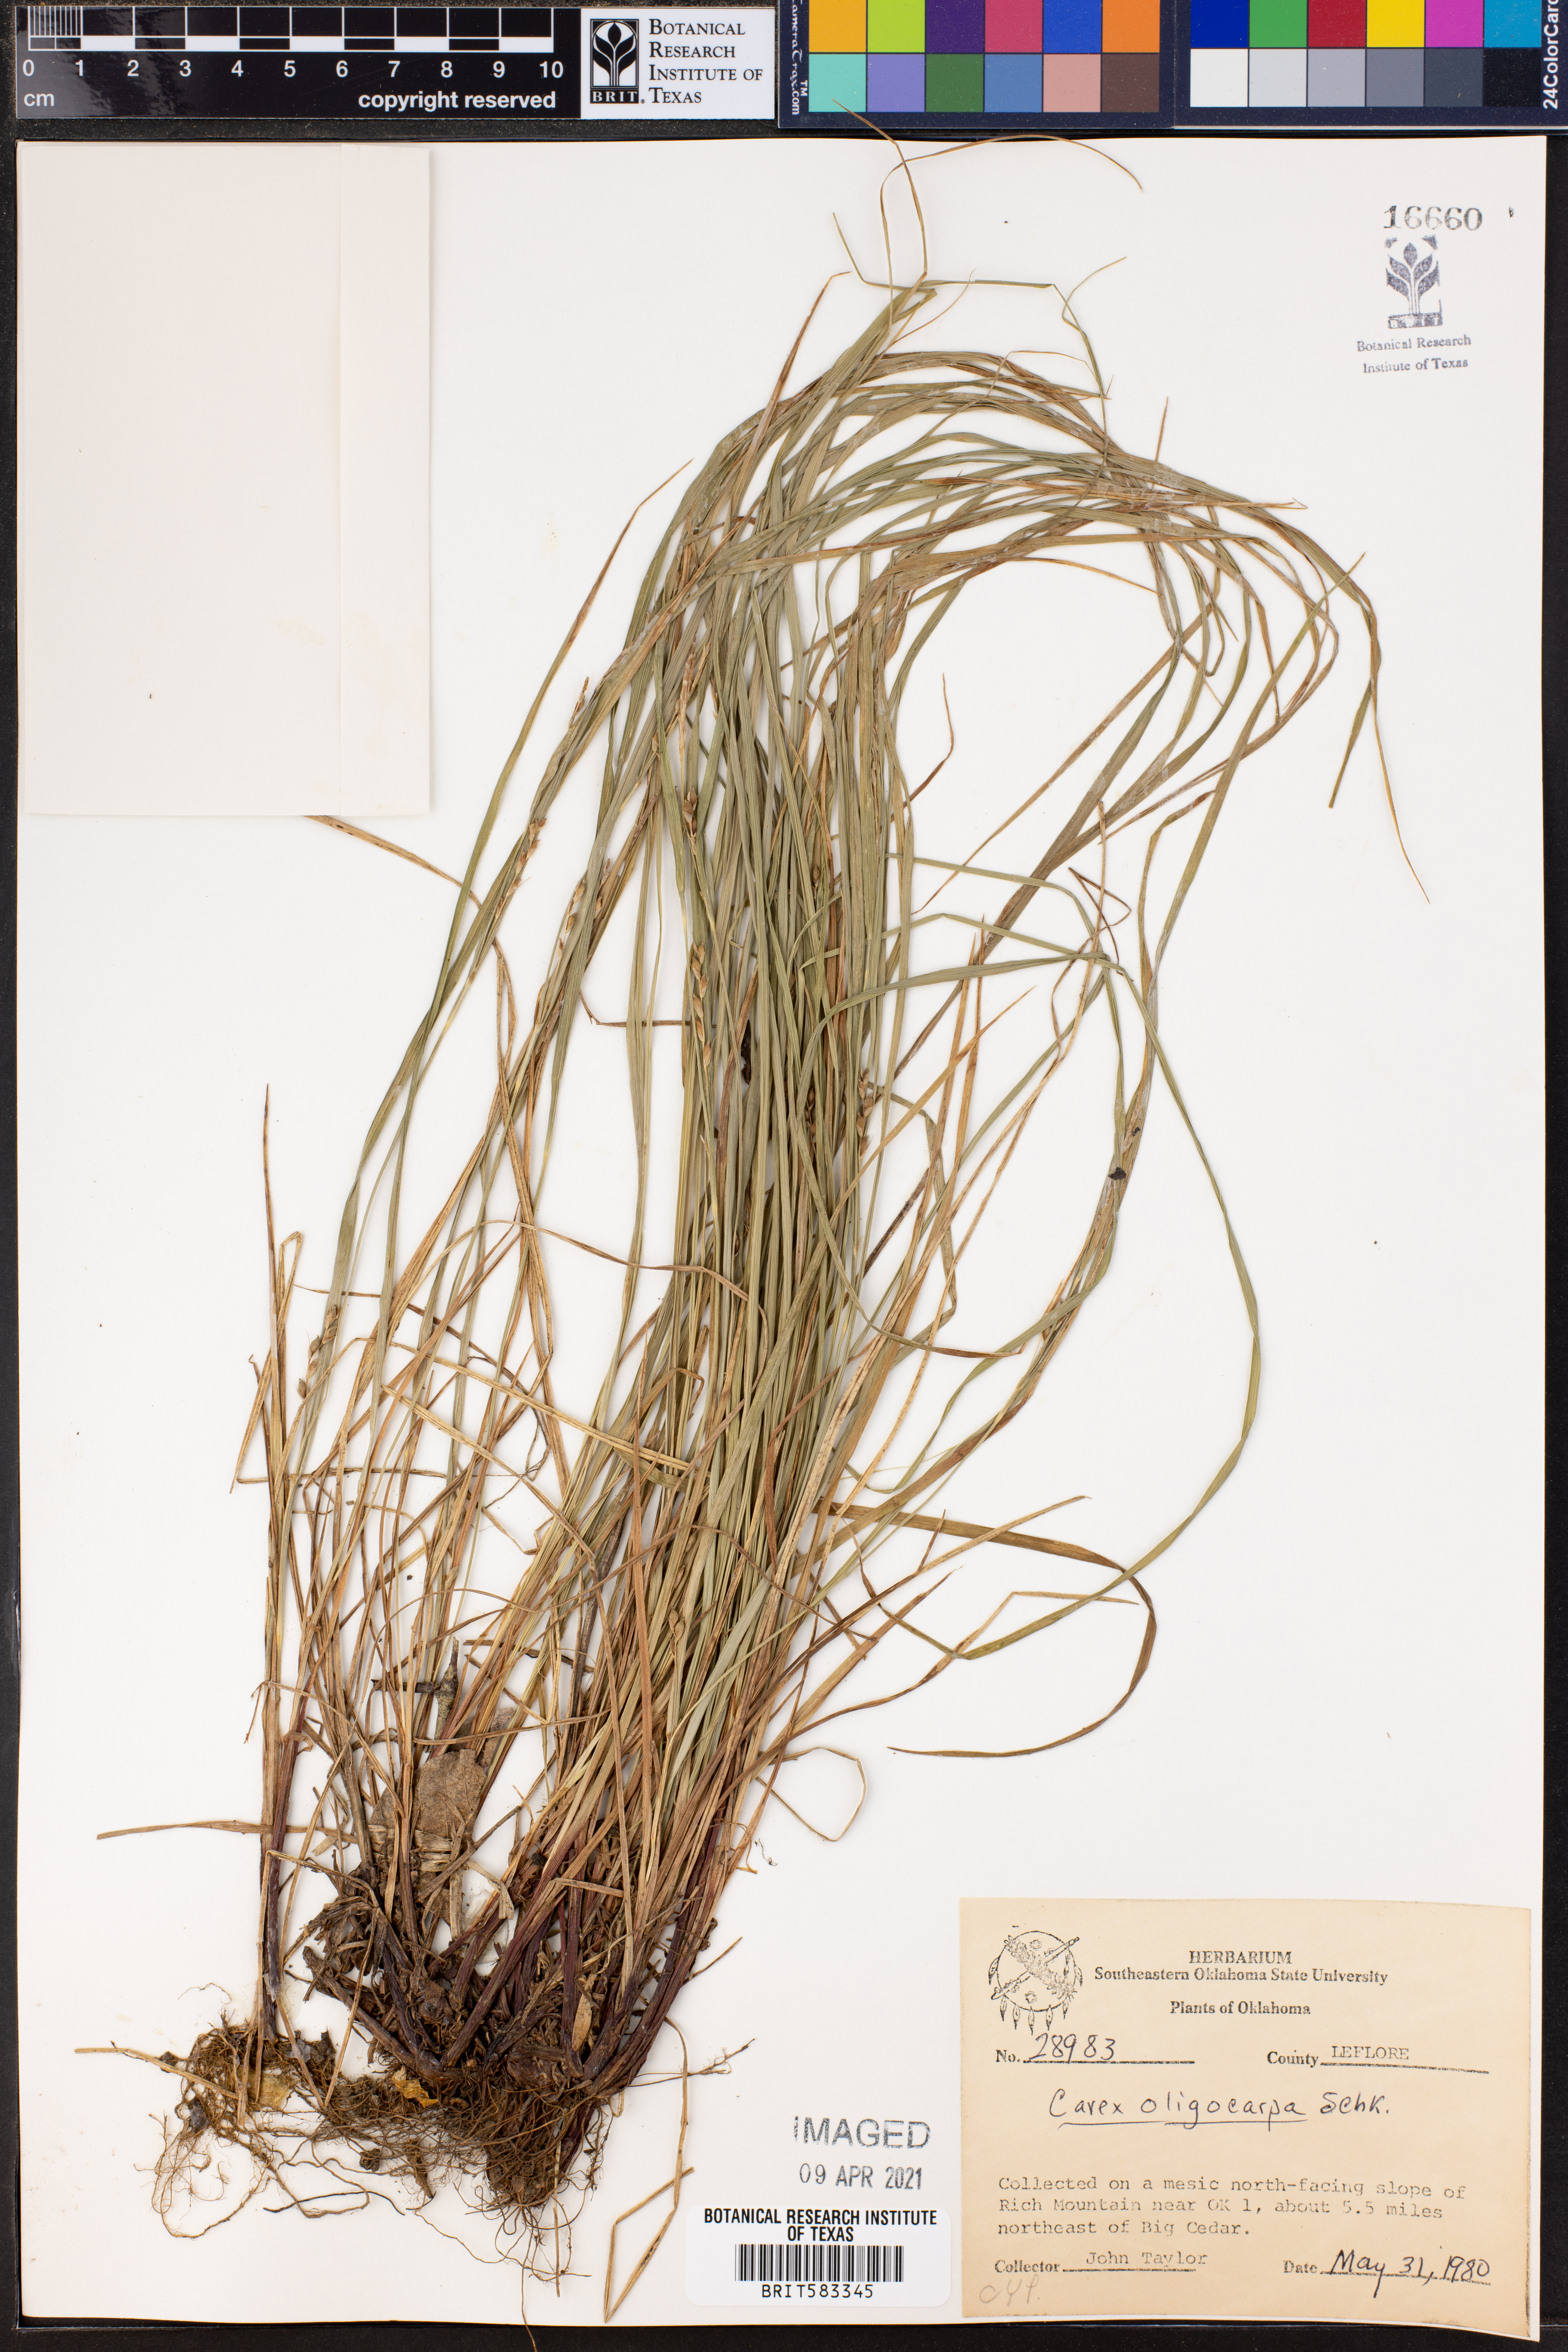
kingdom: Plantae
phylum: Tracheophyta
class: Liliopsida
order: Poales
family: Cyperaceae
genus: Carex
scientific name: Carex oligocarpa
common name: Eastern few-fruited sedge
